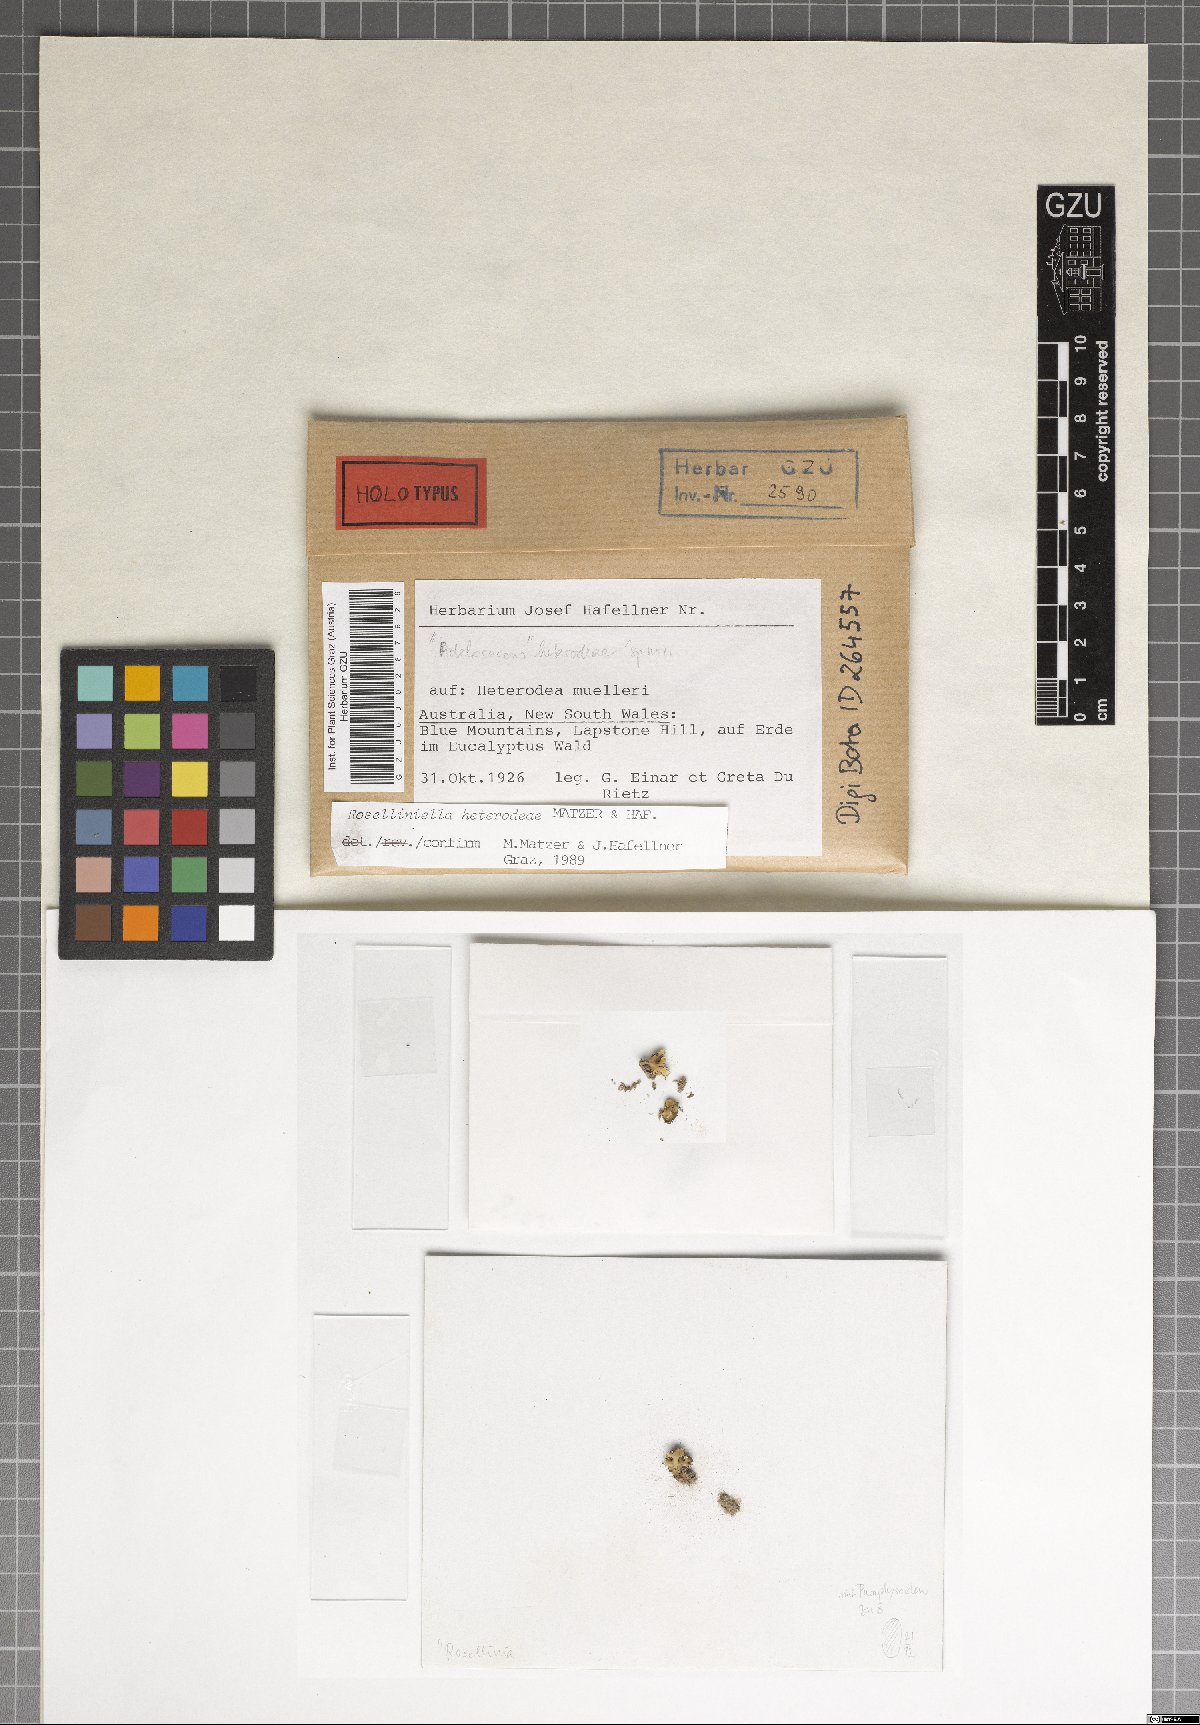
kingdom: Fungi
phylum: Ascomycota
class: Sordariomycetes
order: Sordariales
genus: Roselliniella
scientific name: Roselliniella heterodeae
